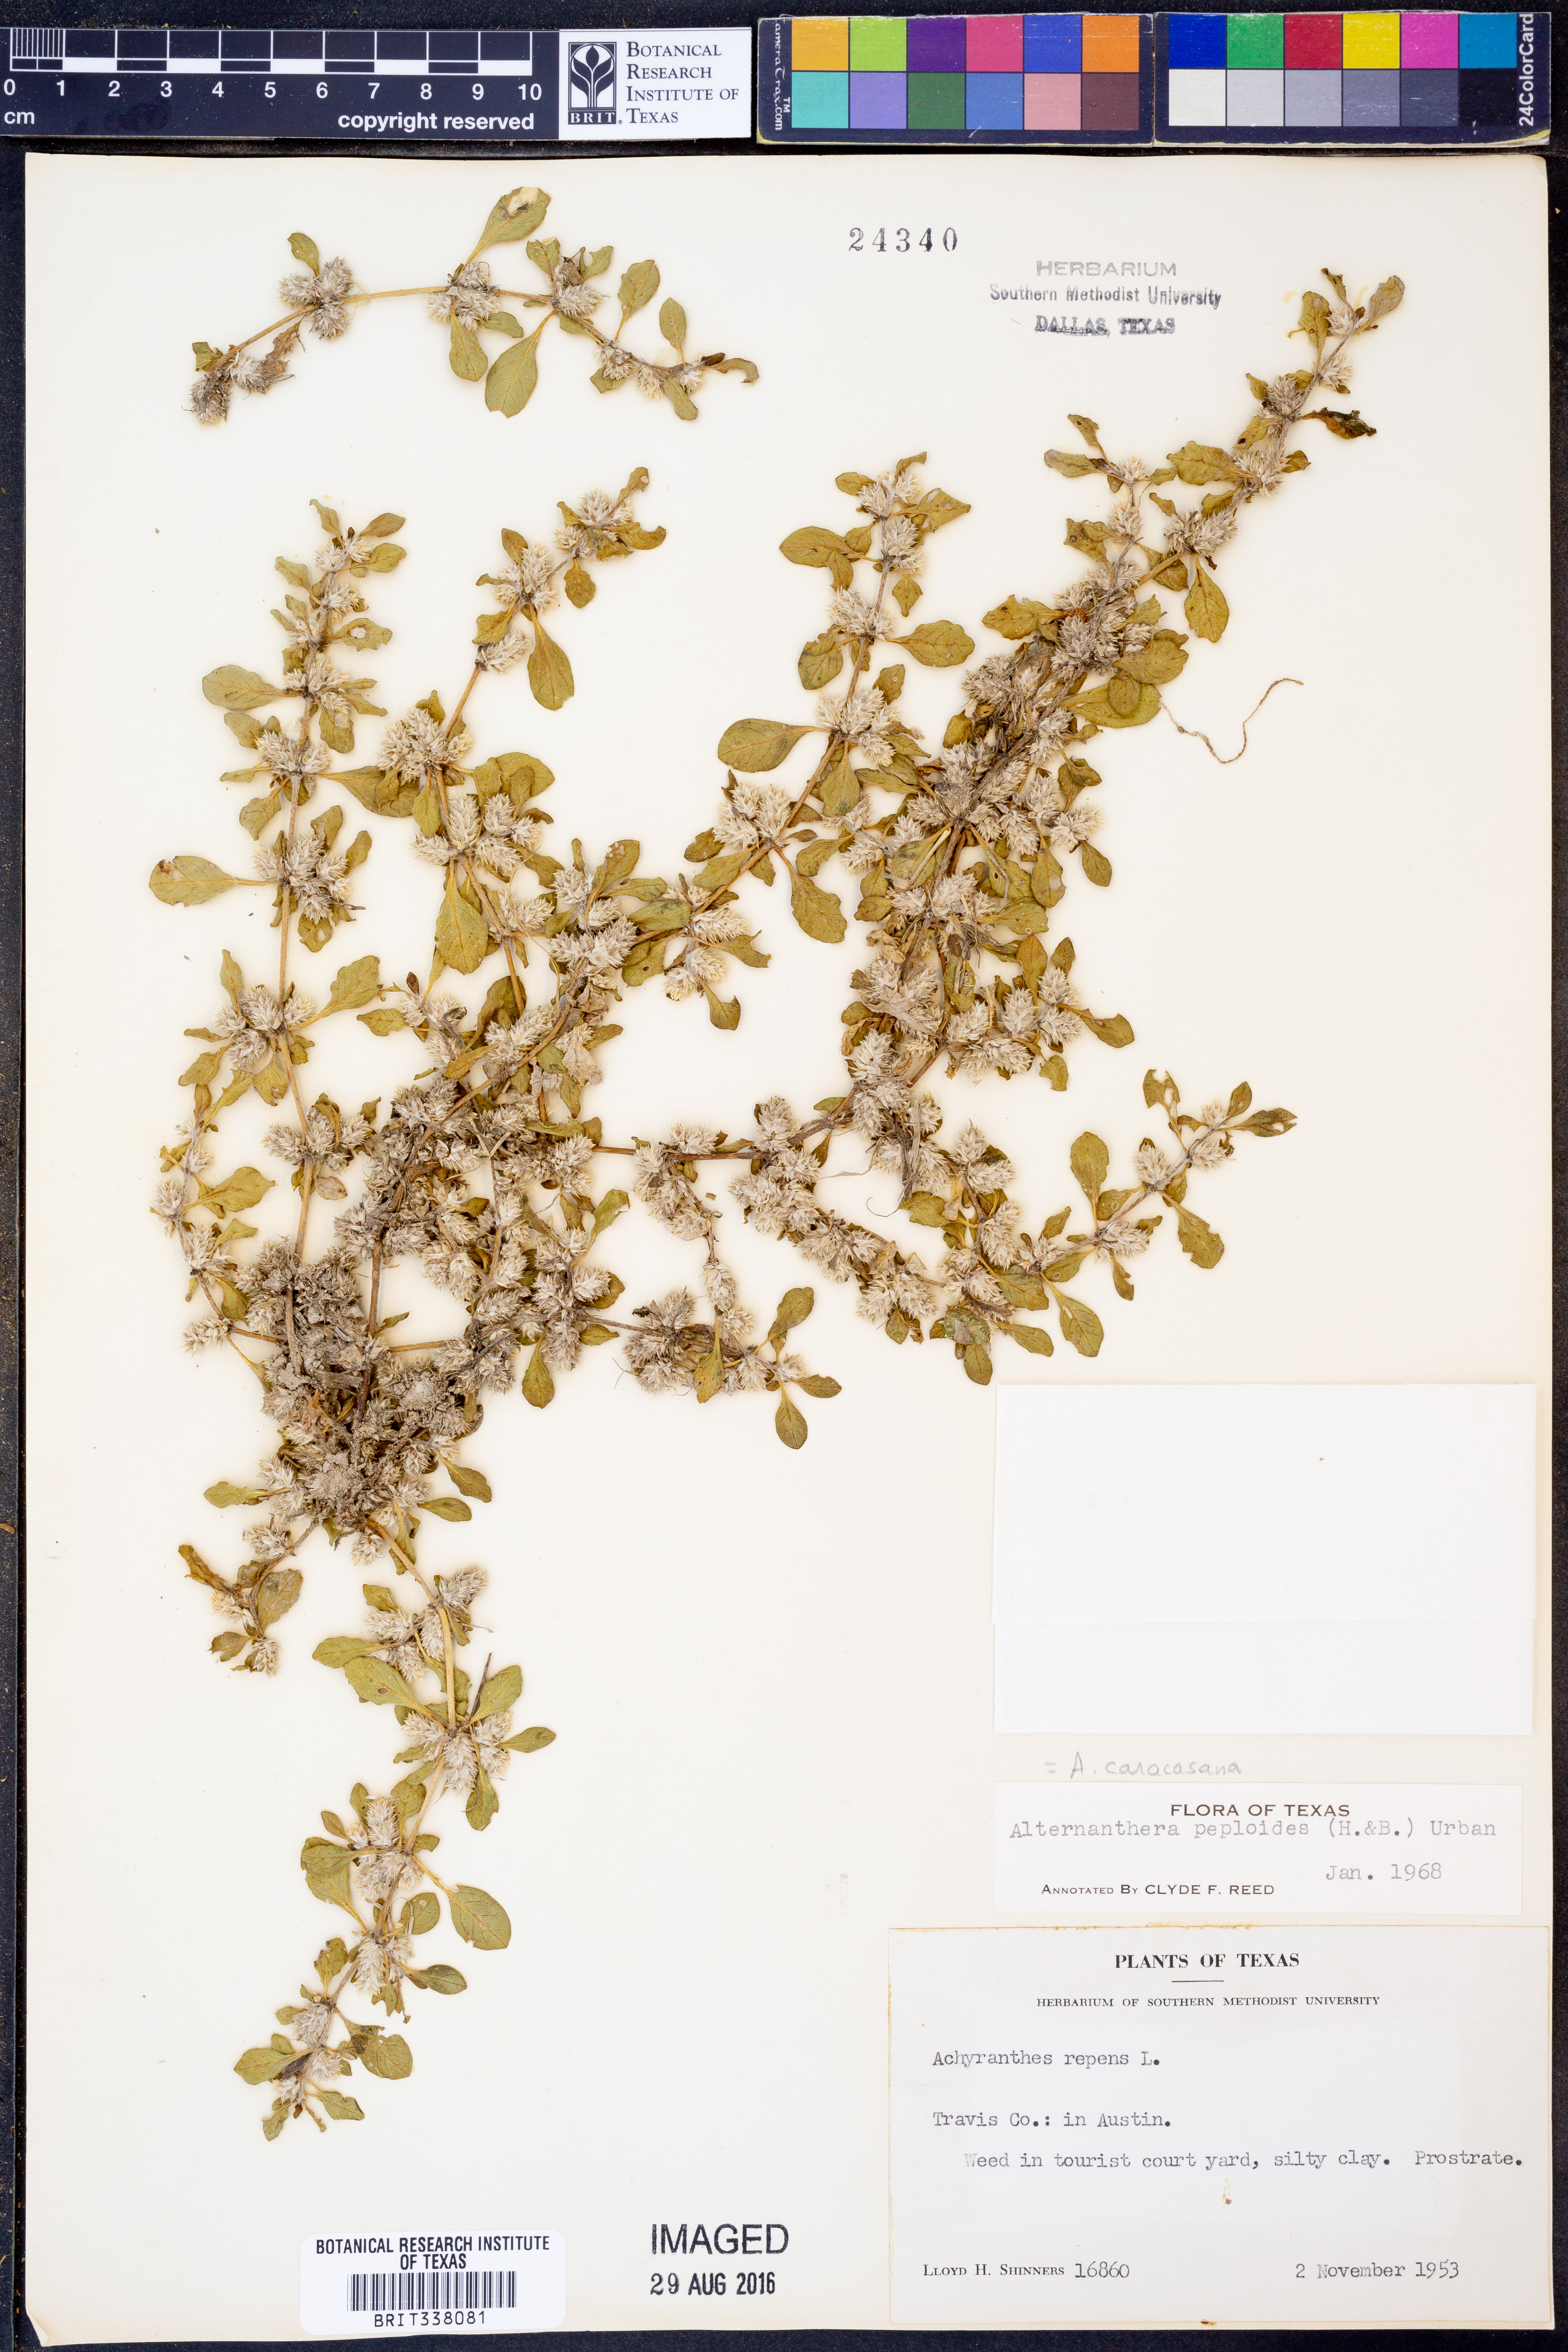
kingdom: Plantae
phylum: Tracheophyta
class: Magnoliopsida
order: Caryophyllales
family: Amaranthaceae
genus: Alternanthera
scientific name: Alternanthera caracasana
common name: Washerwoman
